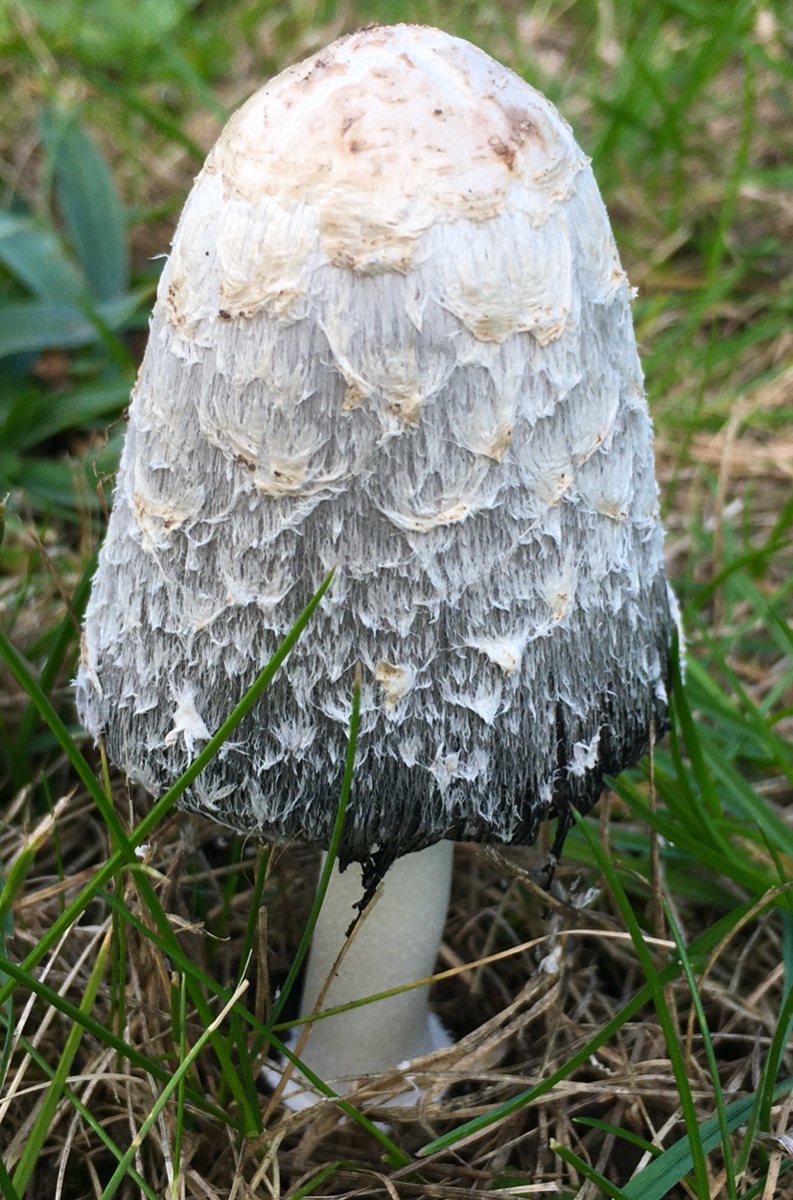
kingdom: Fungi
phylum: Basidiomycota
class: Agaricomycetes
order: Agaricales
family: Agaricaceae
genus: Coprinus
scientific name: Coprinus comatus
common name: stor parykhat
